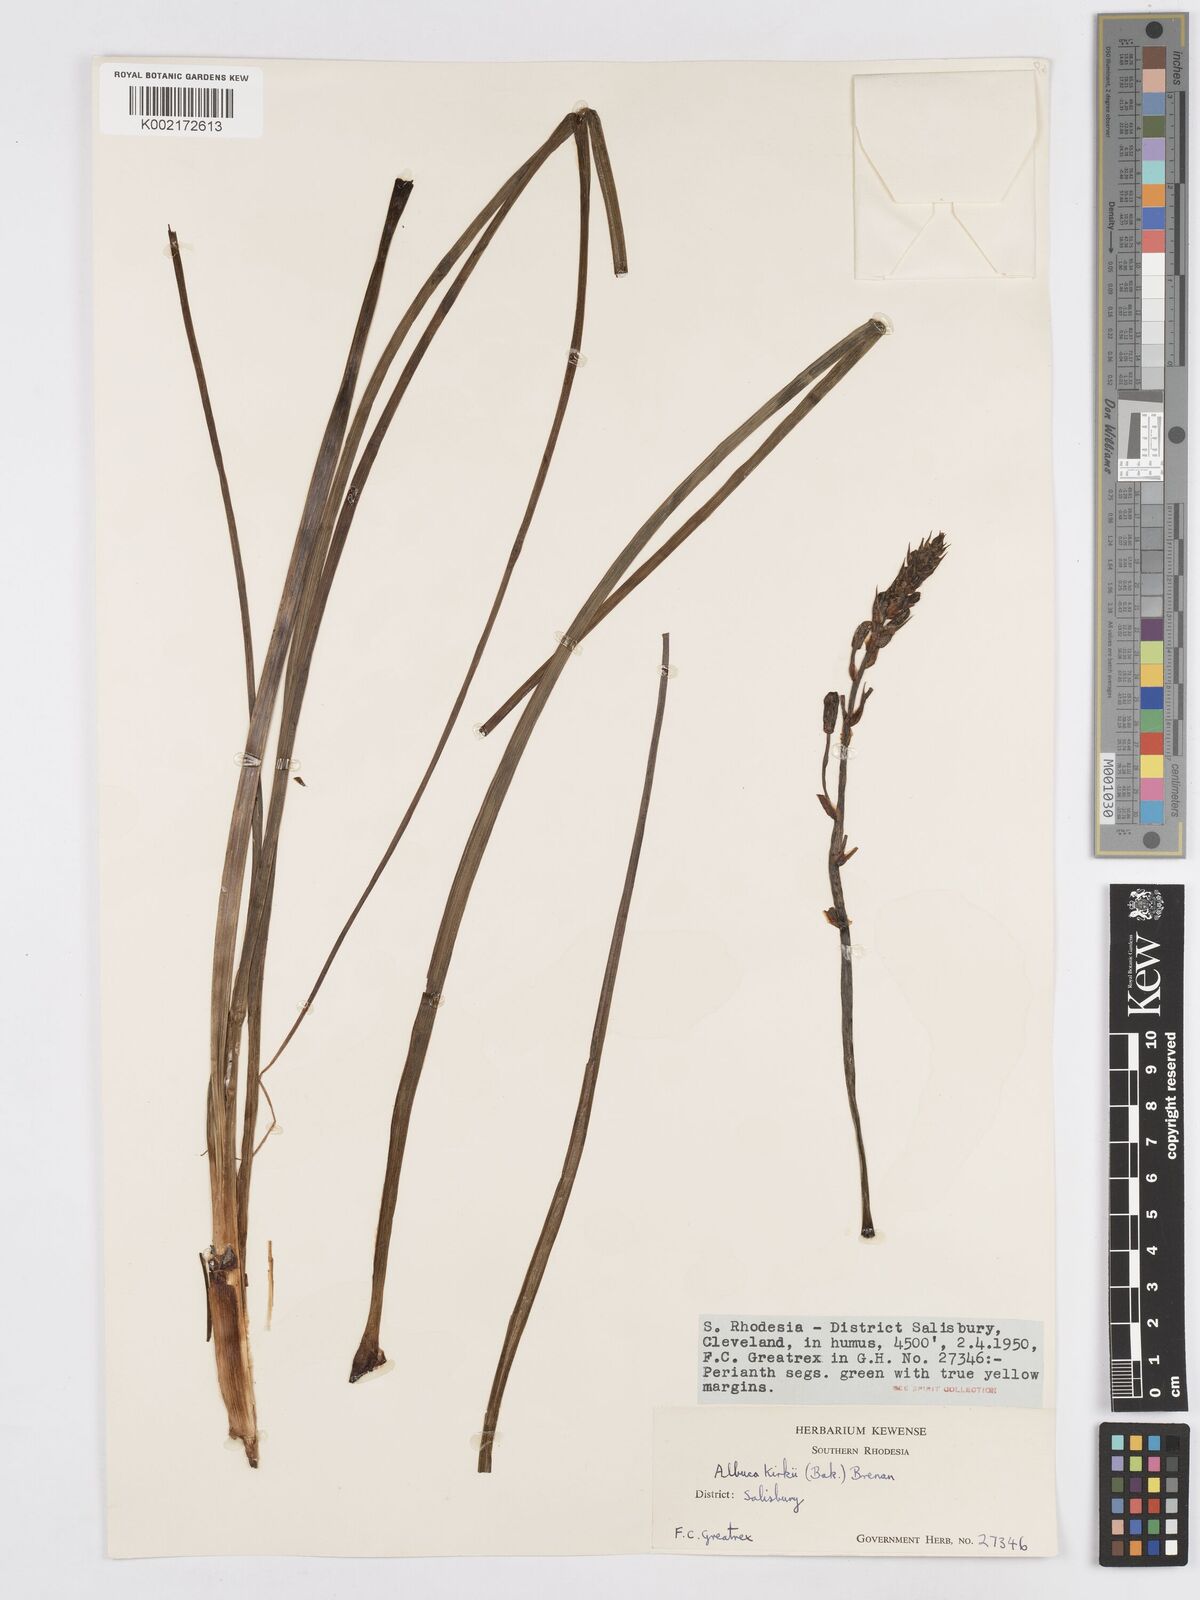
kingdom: Plantae
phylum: Tracheophyta
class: Liliopsida
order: Asparagales
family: Asparagaceae
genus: Albuca
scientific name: Albuca kirkii
